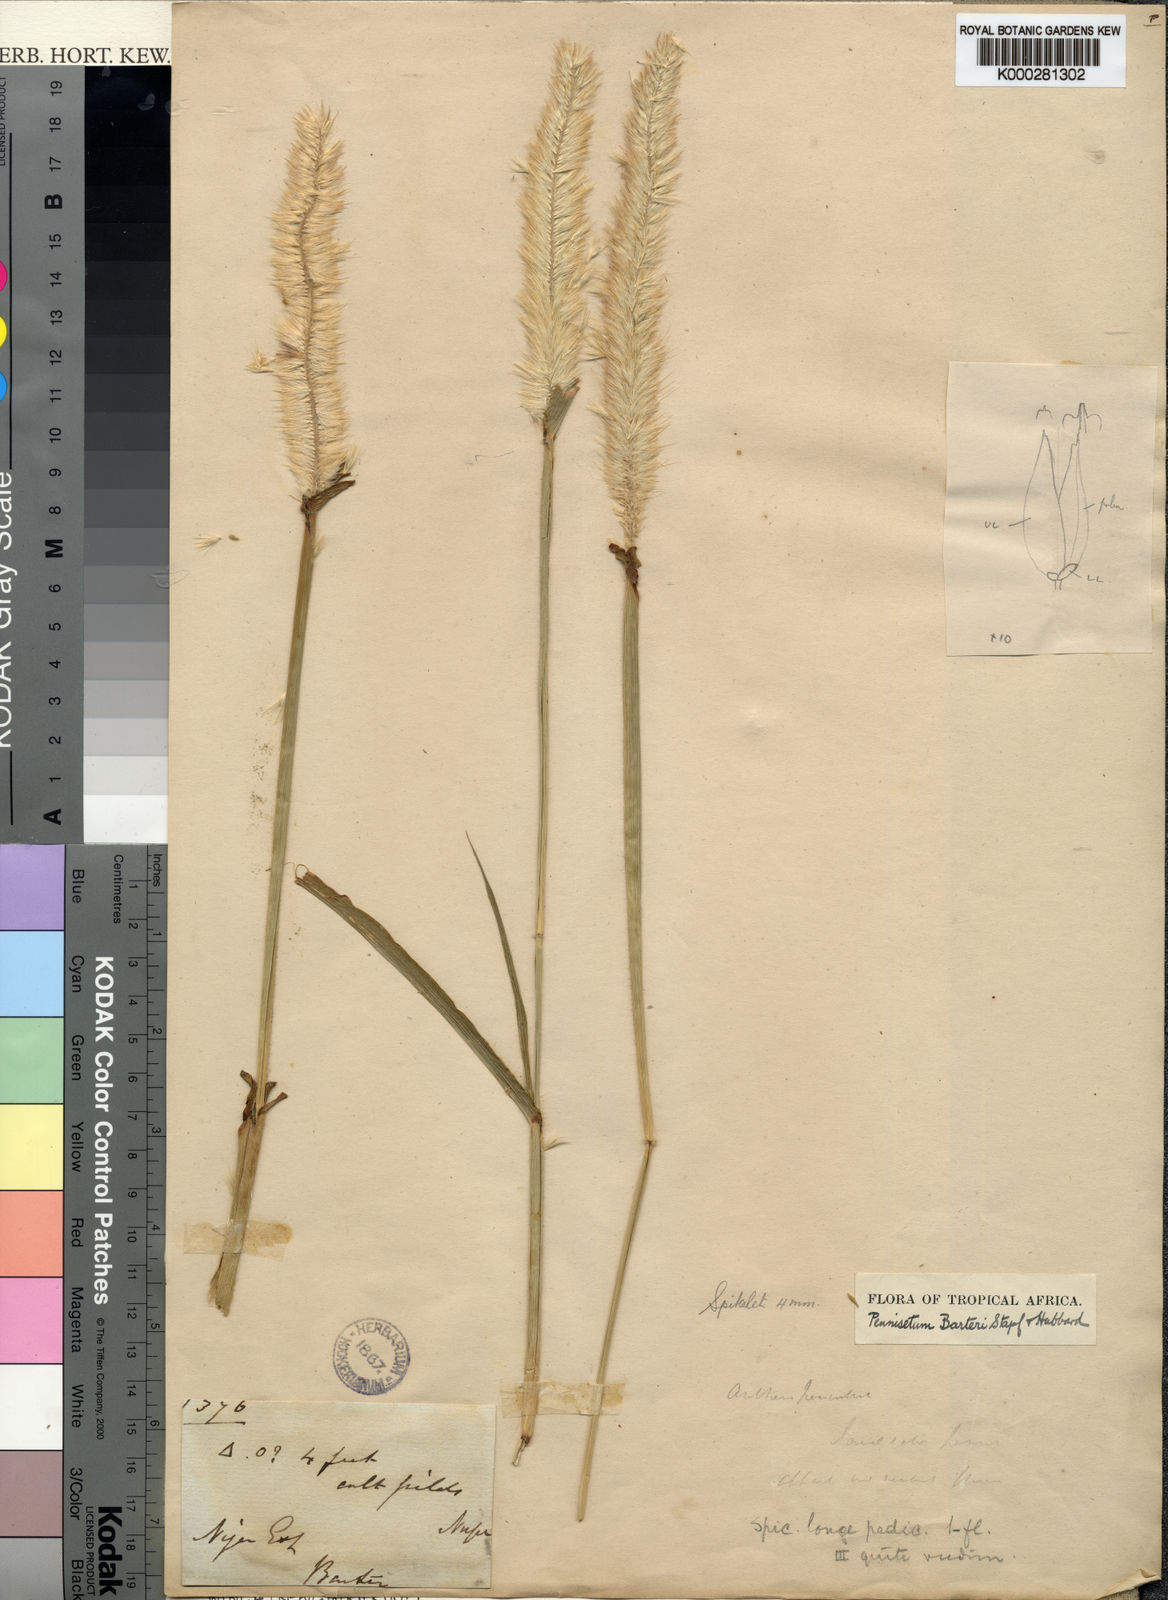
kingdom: Plantae
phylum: Tracheophyta
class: Liliopsida
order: Poales
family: Poaceae
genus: Cenchrus
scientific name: Cenchrus sieberianus
